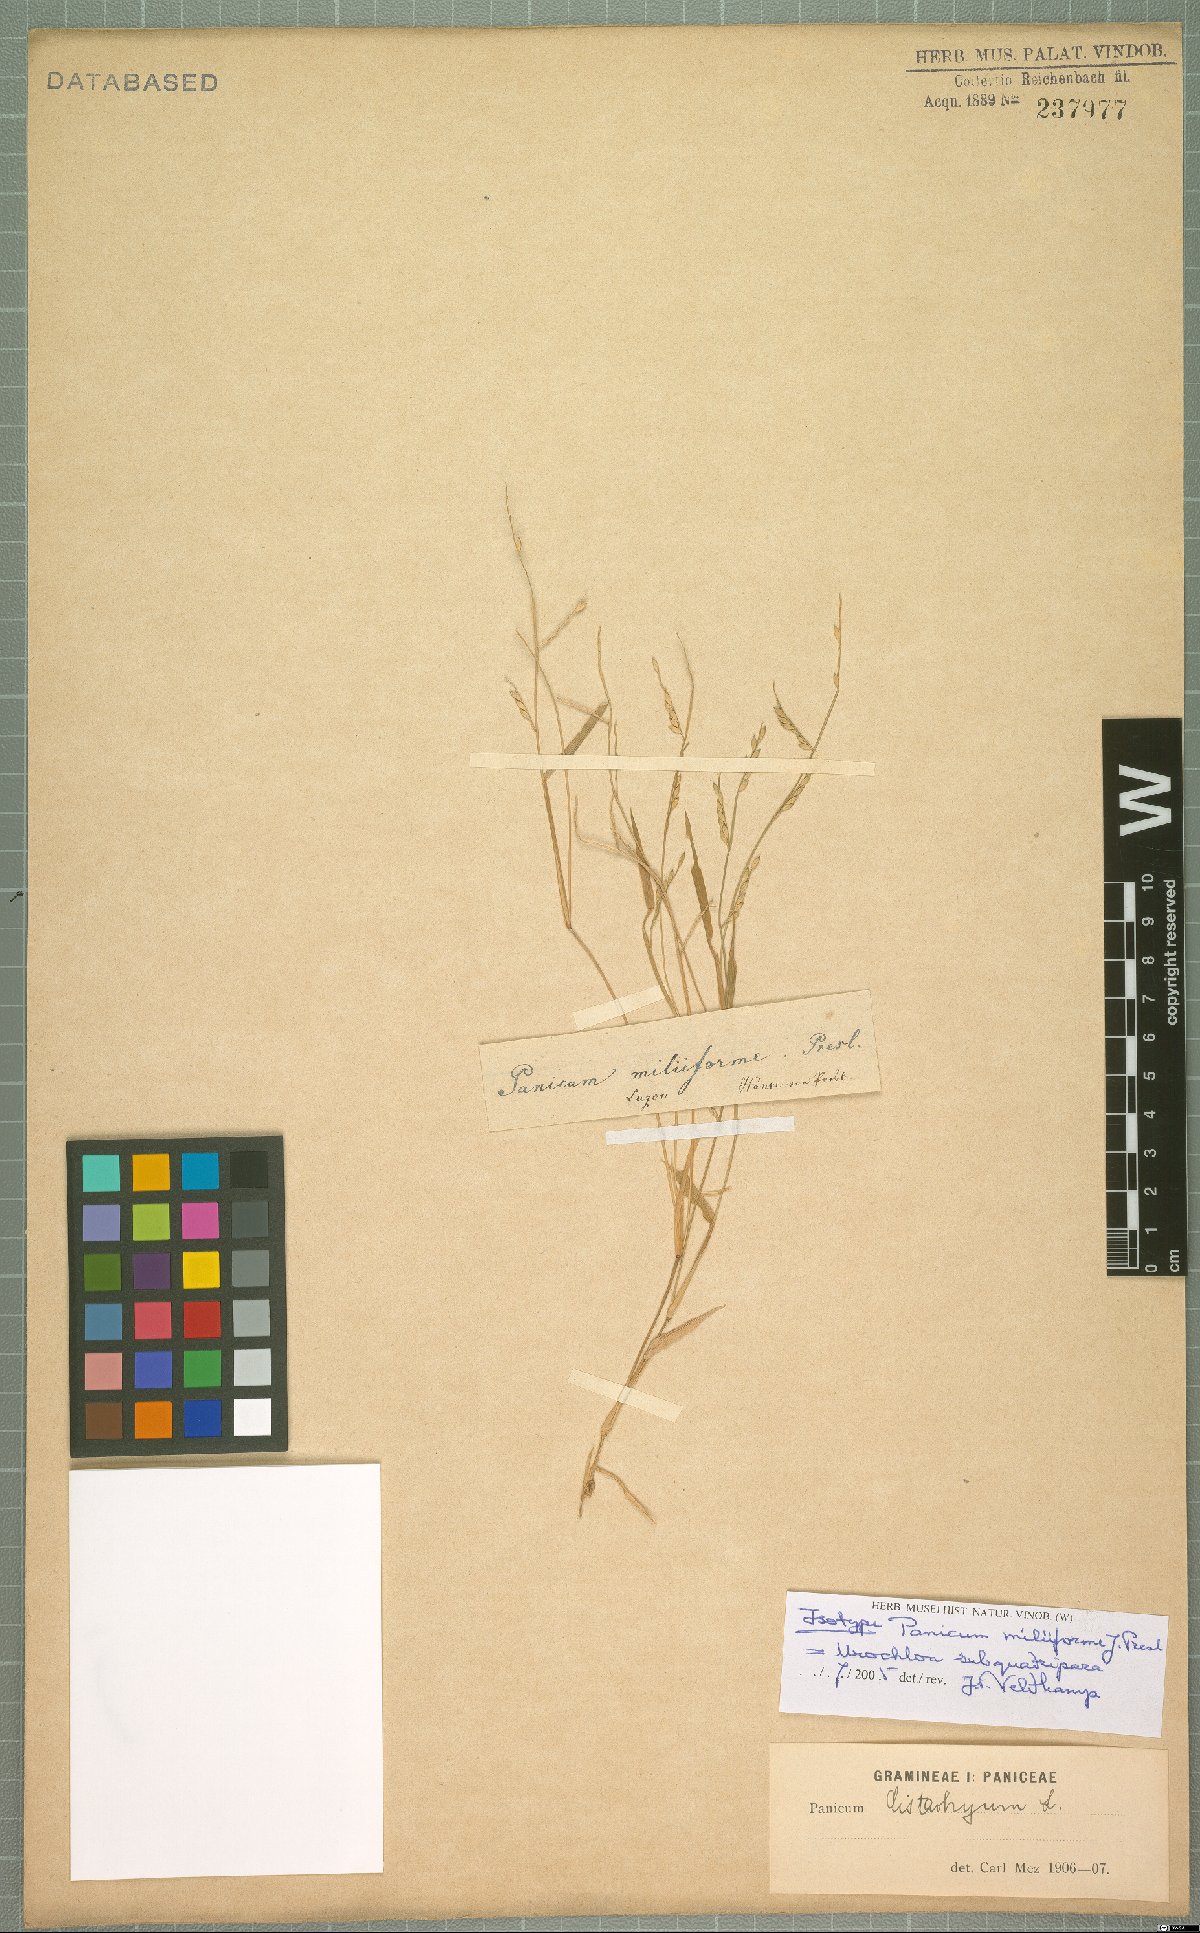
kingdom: Plantae
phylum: Tracheophyta
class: Liliopsida
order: Poales
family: Poaceae
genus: Urochloa
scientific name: Urochloa subquadripara
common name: Armgrass millet
